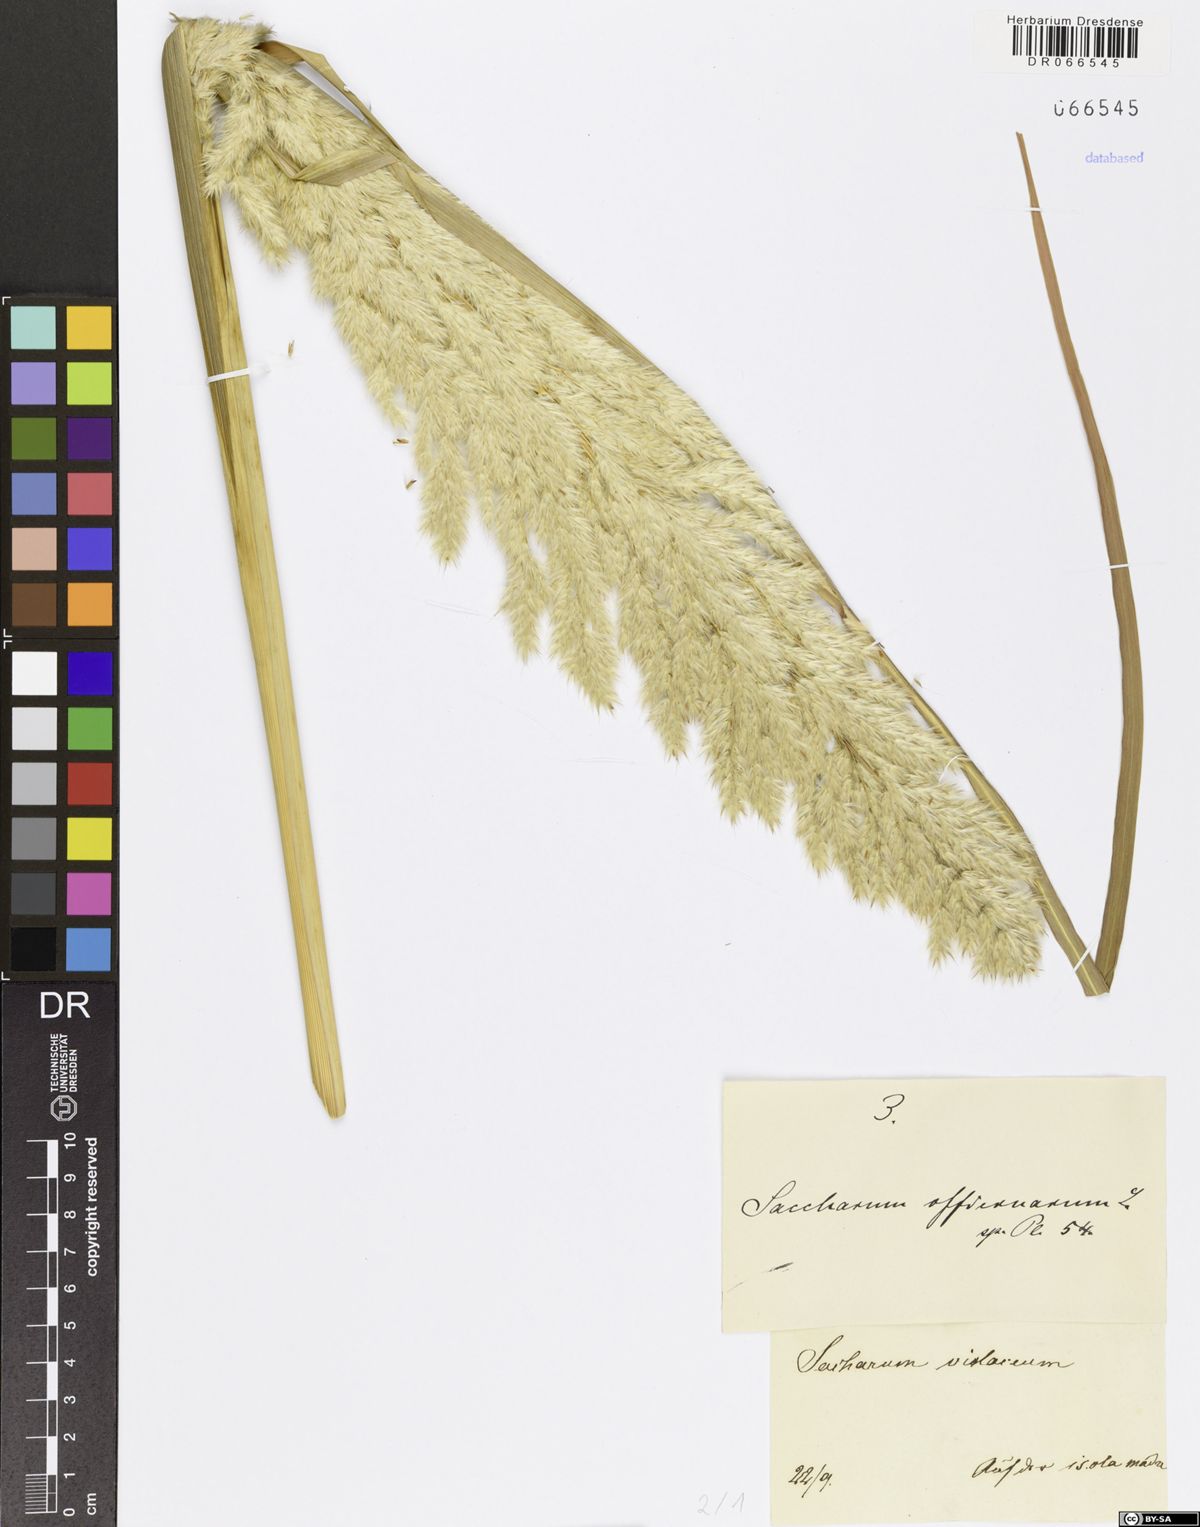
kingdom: Plantae
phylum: Tracheophyta
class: Liliopsida
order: Poales
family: Poaceae
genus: Saccharum
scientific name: Saccharum officinarum
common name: Sugarcane
